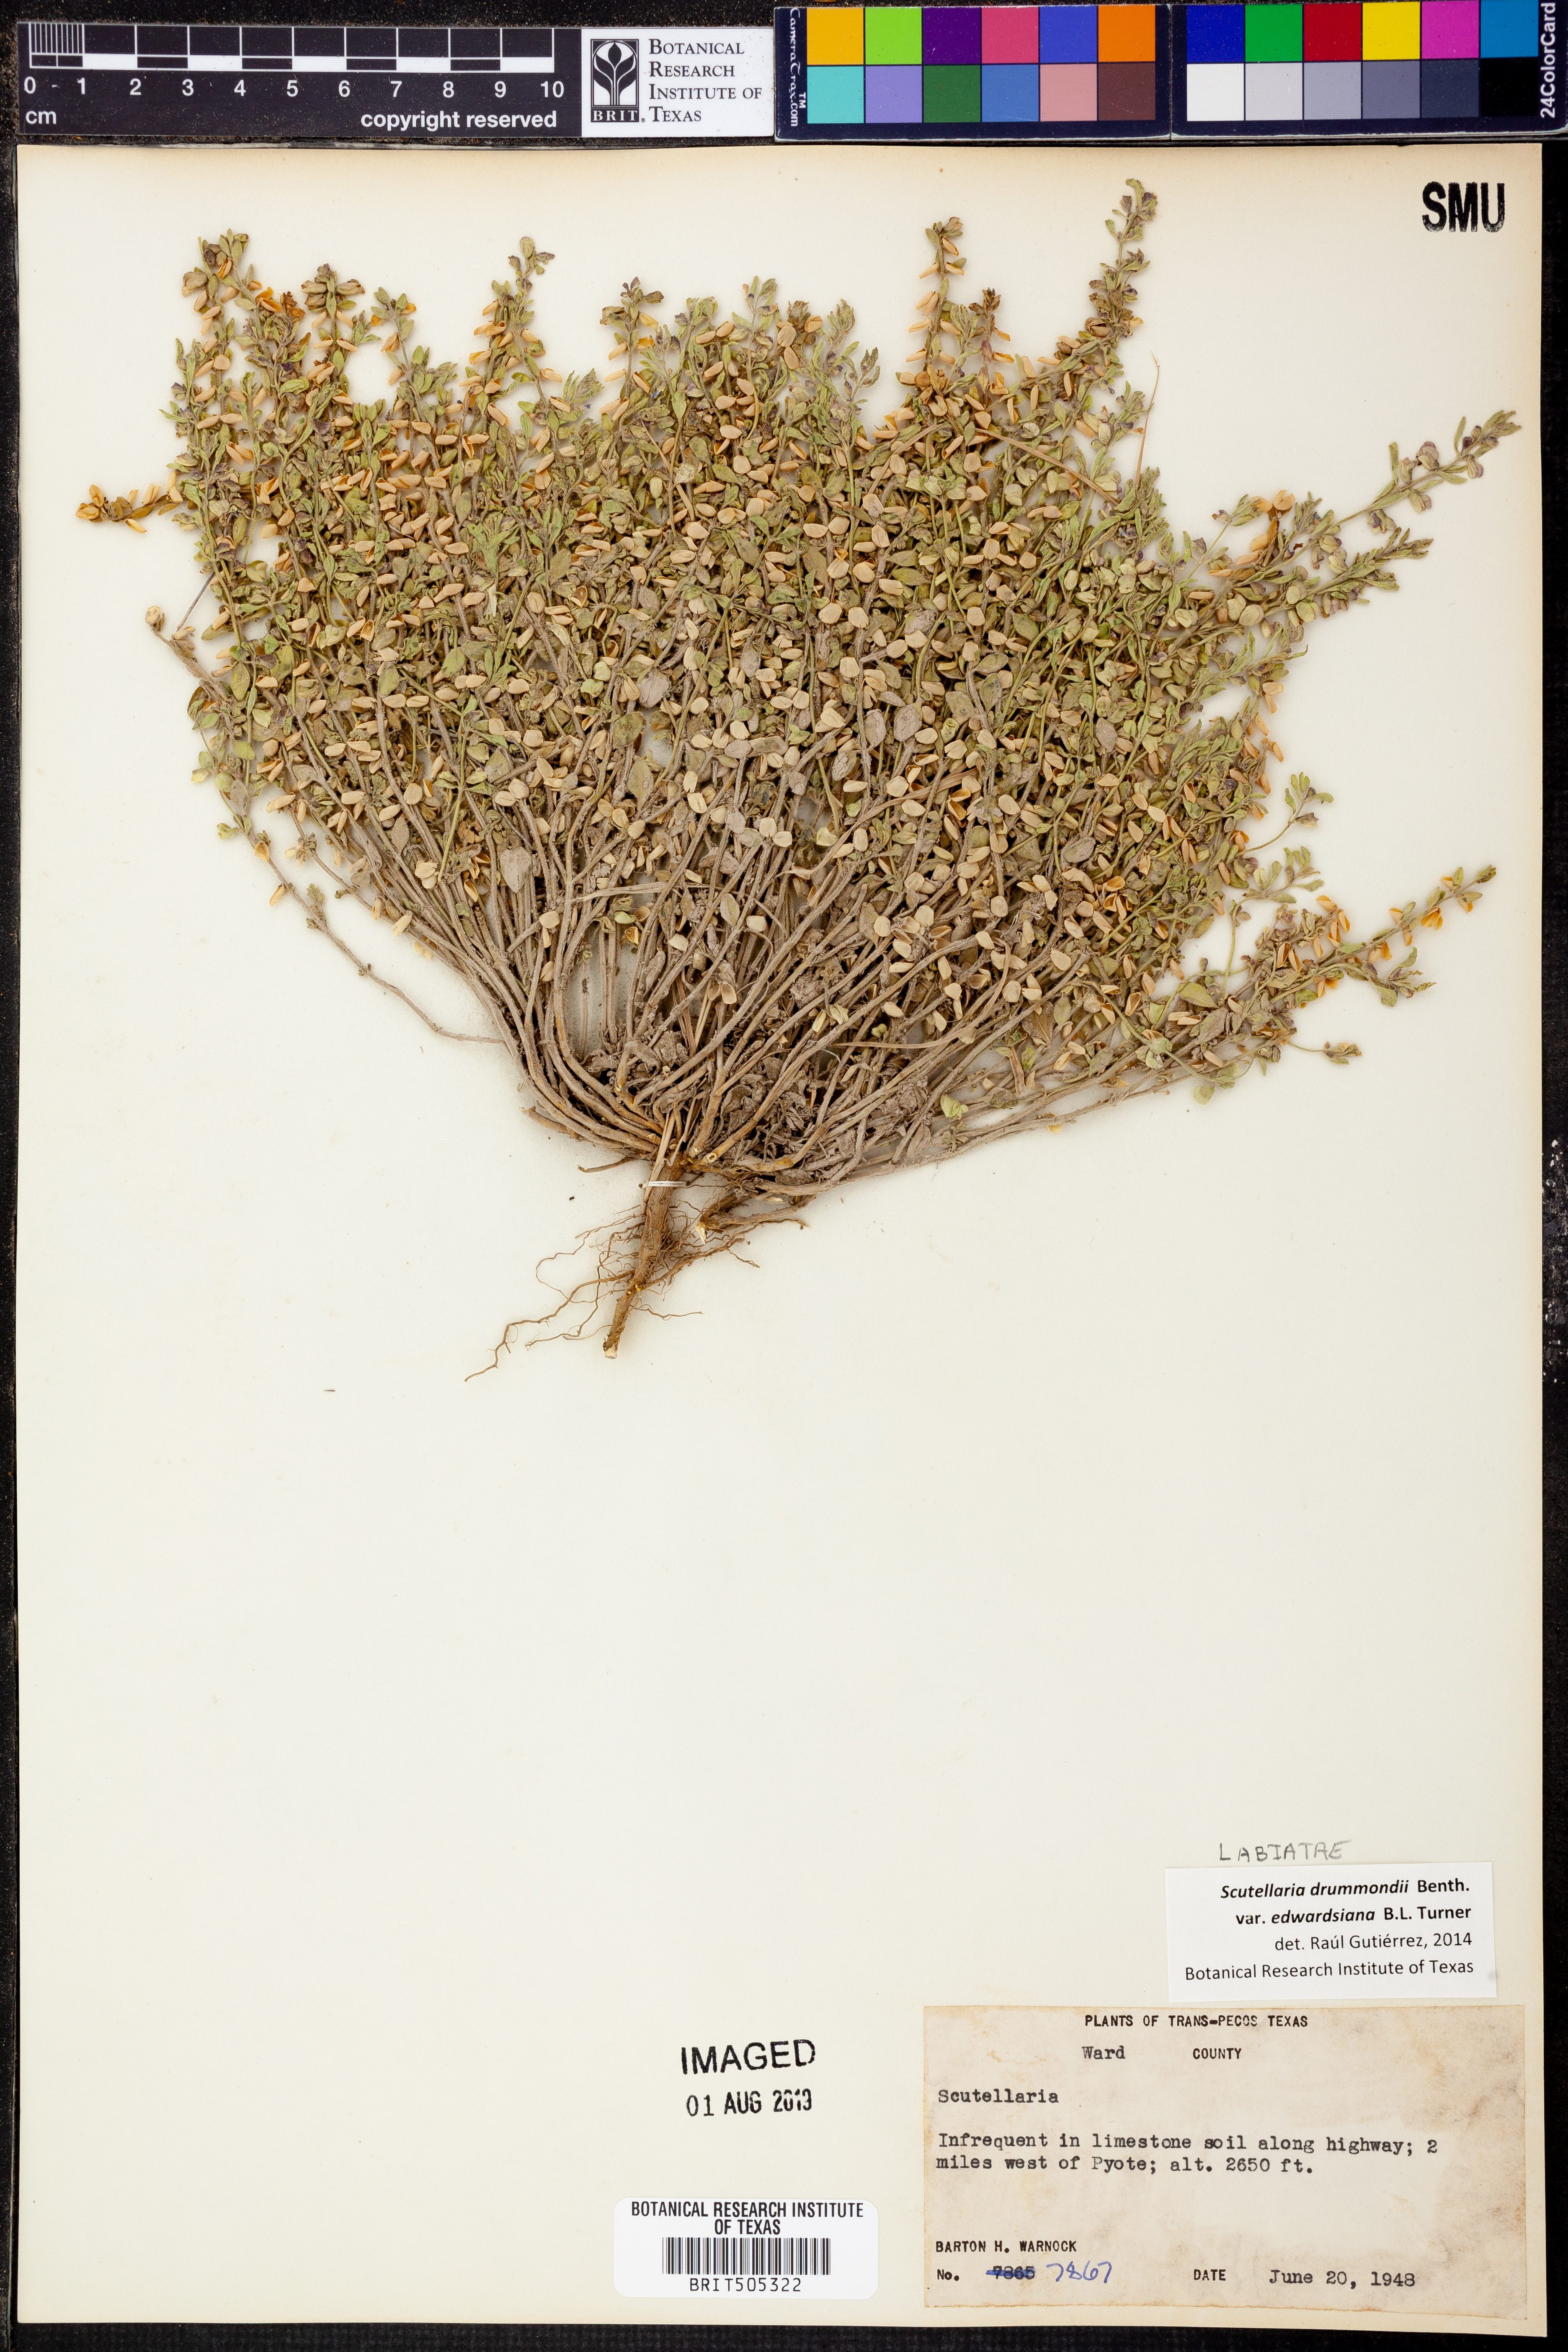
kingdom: Plantae
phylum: Tracheophyta
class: Magnoliopsida
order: Lamiales
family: Lamiaceae
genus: Scutellaria
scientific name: Scutellaria drummondii
